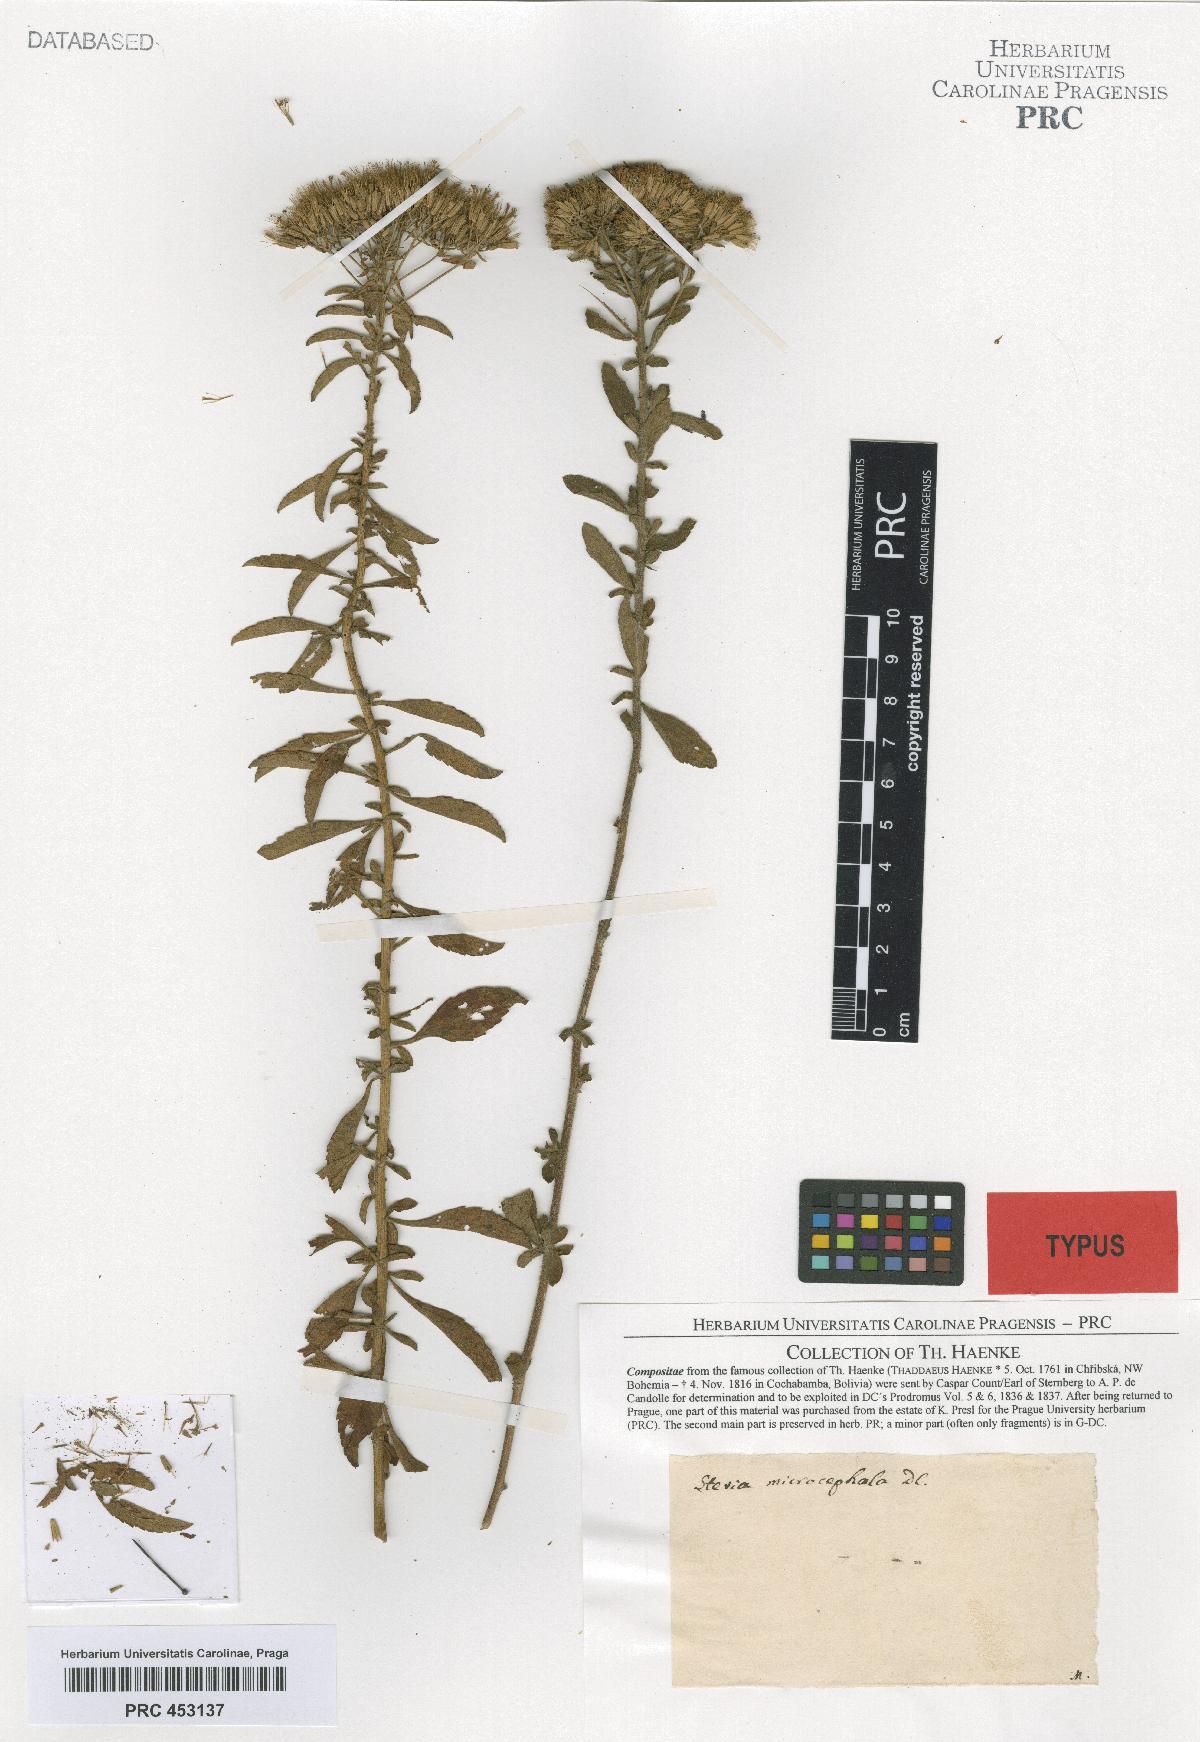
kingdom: Plantae
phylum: Tracheophyta
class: Magnoliopsida
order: Asterales
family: Asteraceae
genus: Stevia
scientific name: Stevia serrata
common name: Sawtooth candyleaf
